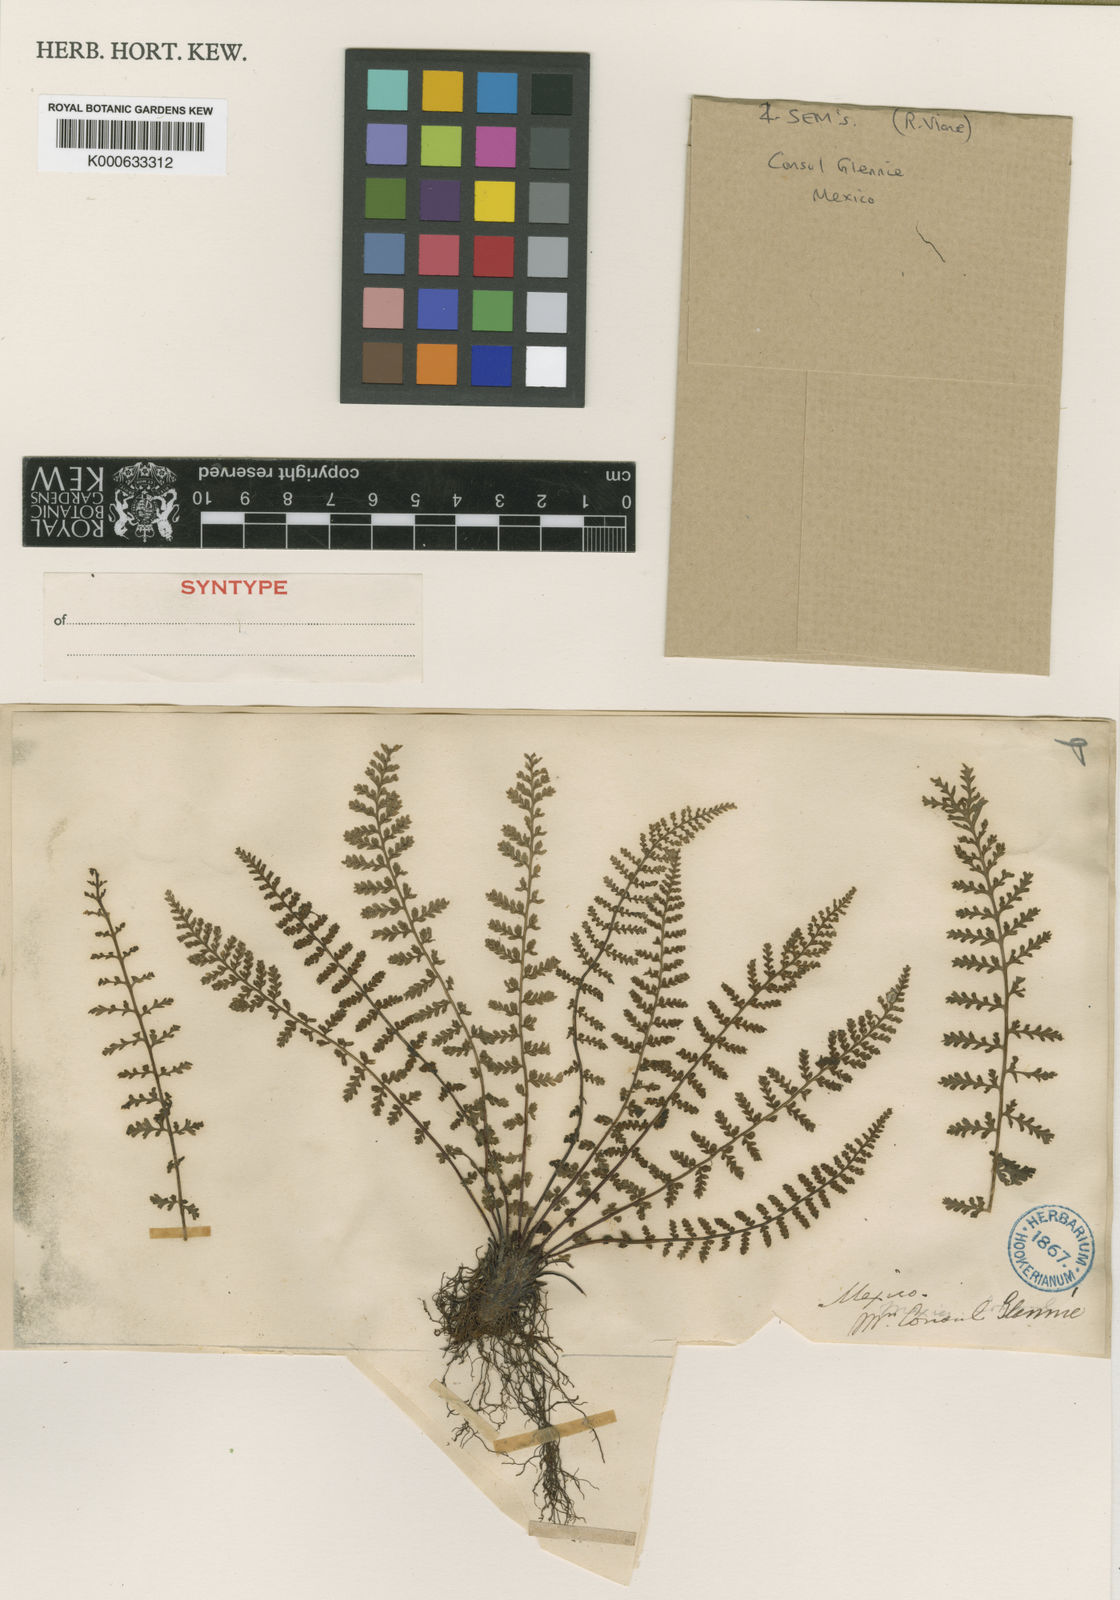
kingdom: Plantae
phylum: Tracheophyta
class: Polypodiopsida
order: Polypodiales
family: Aspleniaceae
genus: Asplenium
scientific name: Asplenium exiguum
